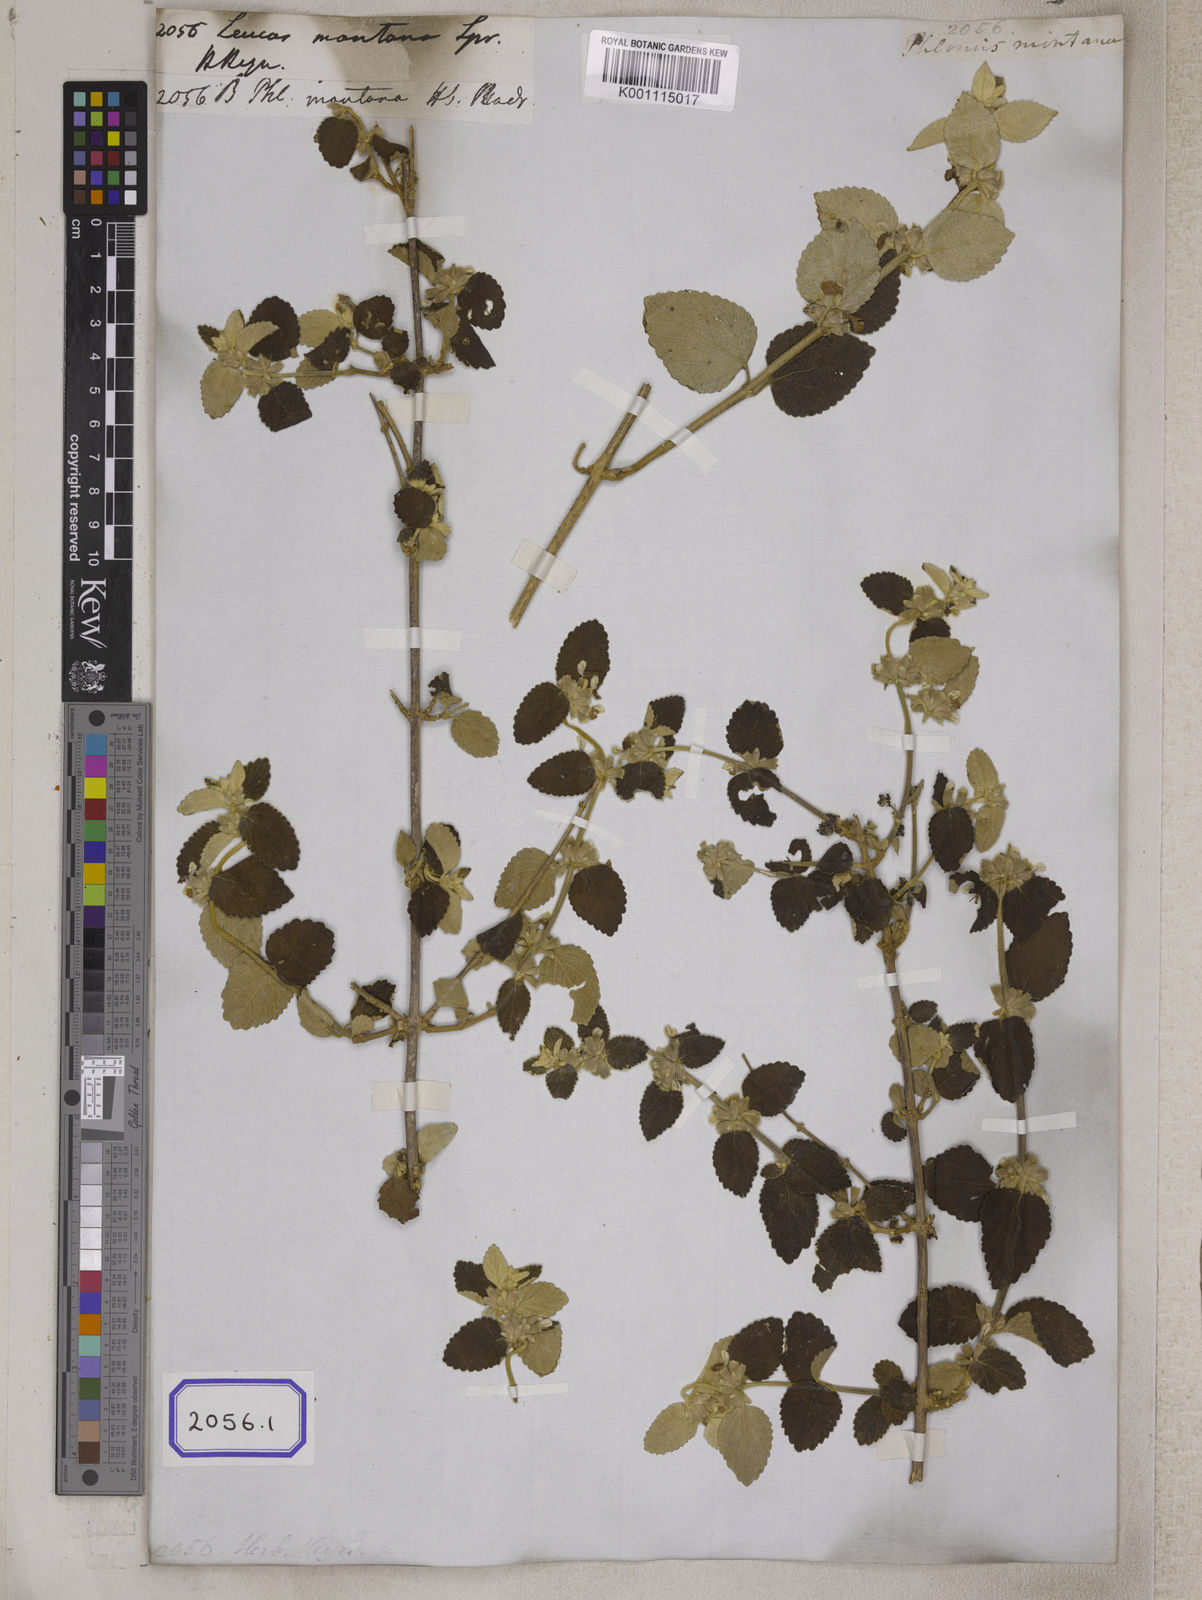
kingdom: Plantae
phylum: Tracheophyta
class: Magnoliopsida
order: Lamiales
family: Lamiaceae
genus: Leucas
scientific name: Leucas montana
